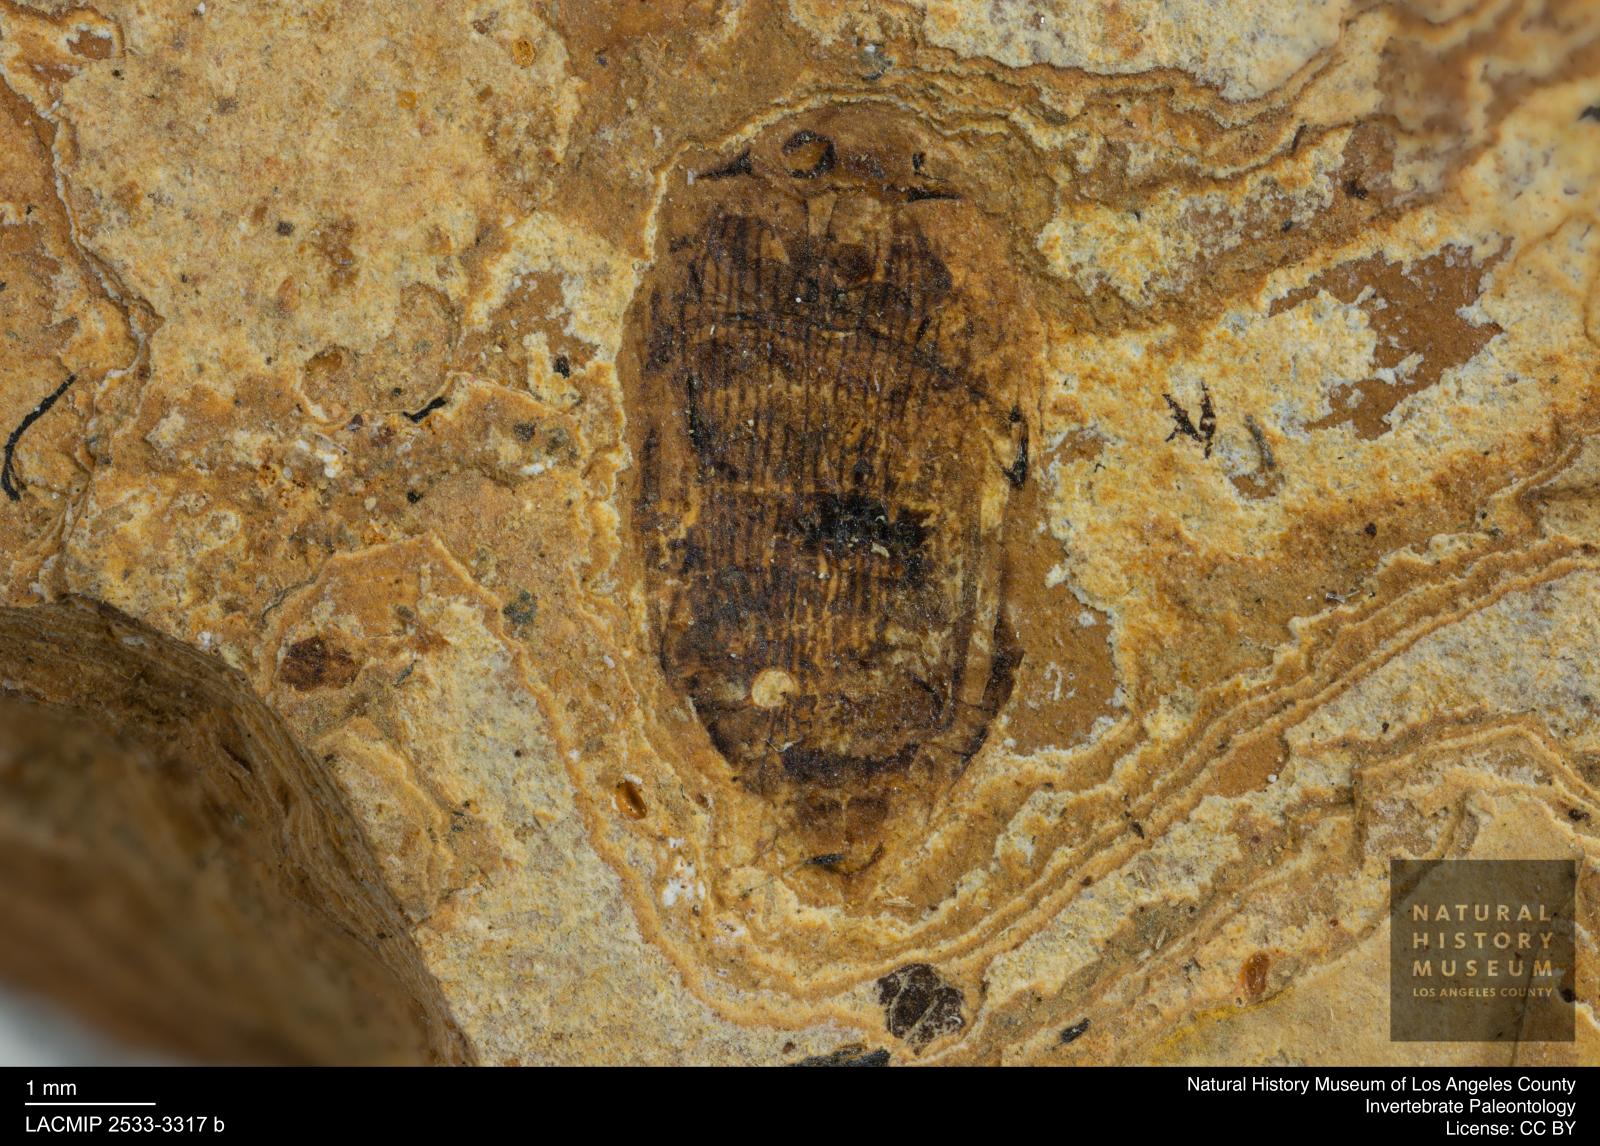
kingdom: Animalia
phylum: Arthropoda
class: Insecta
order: Coleoptera
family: Dytiscidae
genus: Laccophilus
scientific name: Laccophilus Palaeogyrinus strigatus
